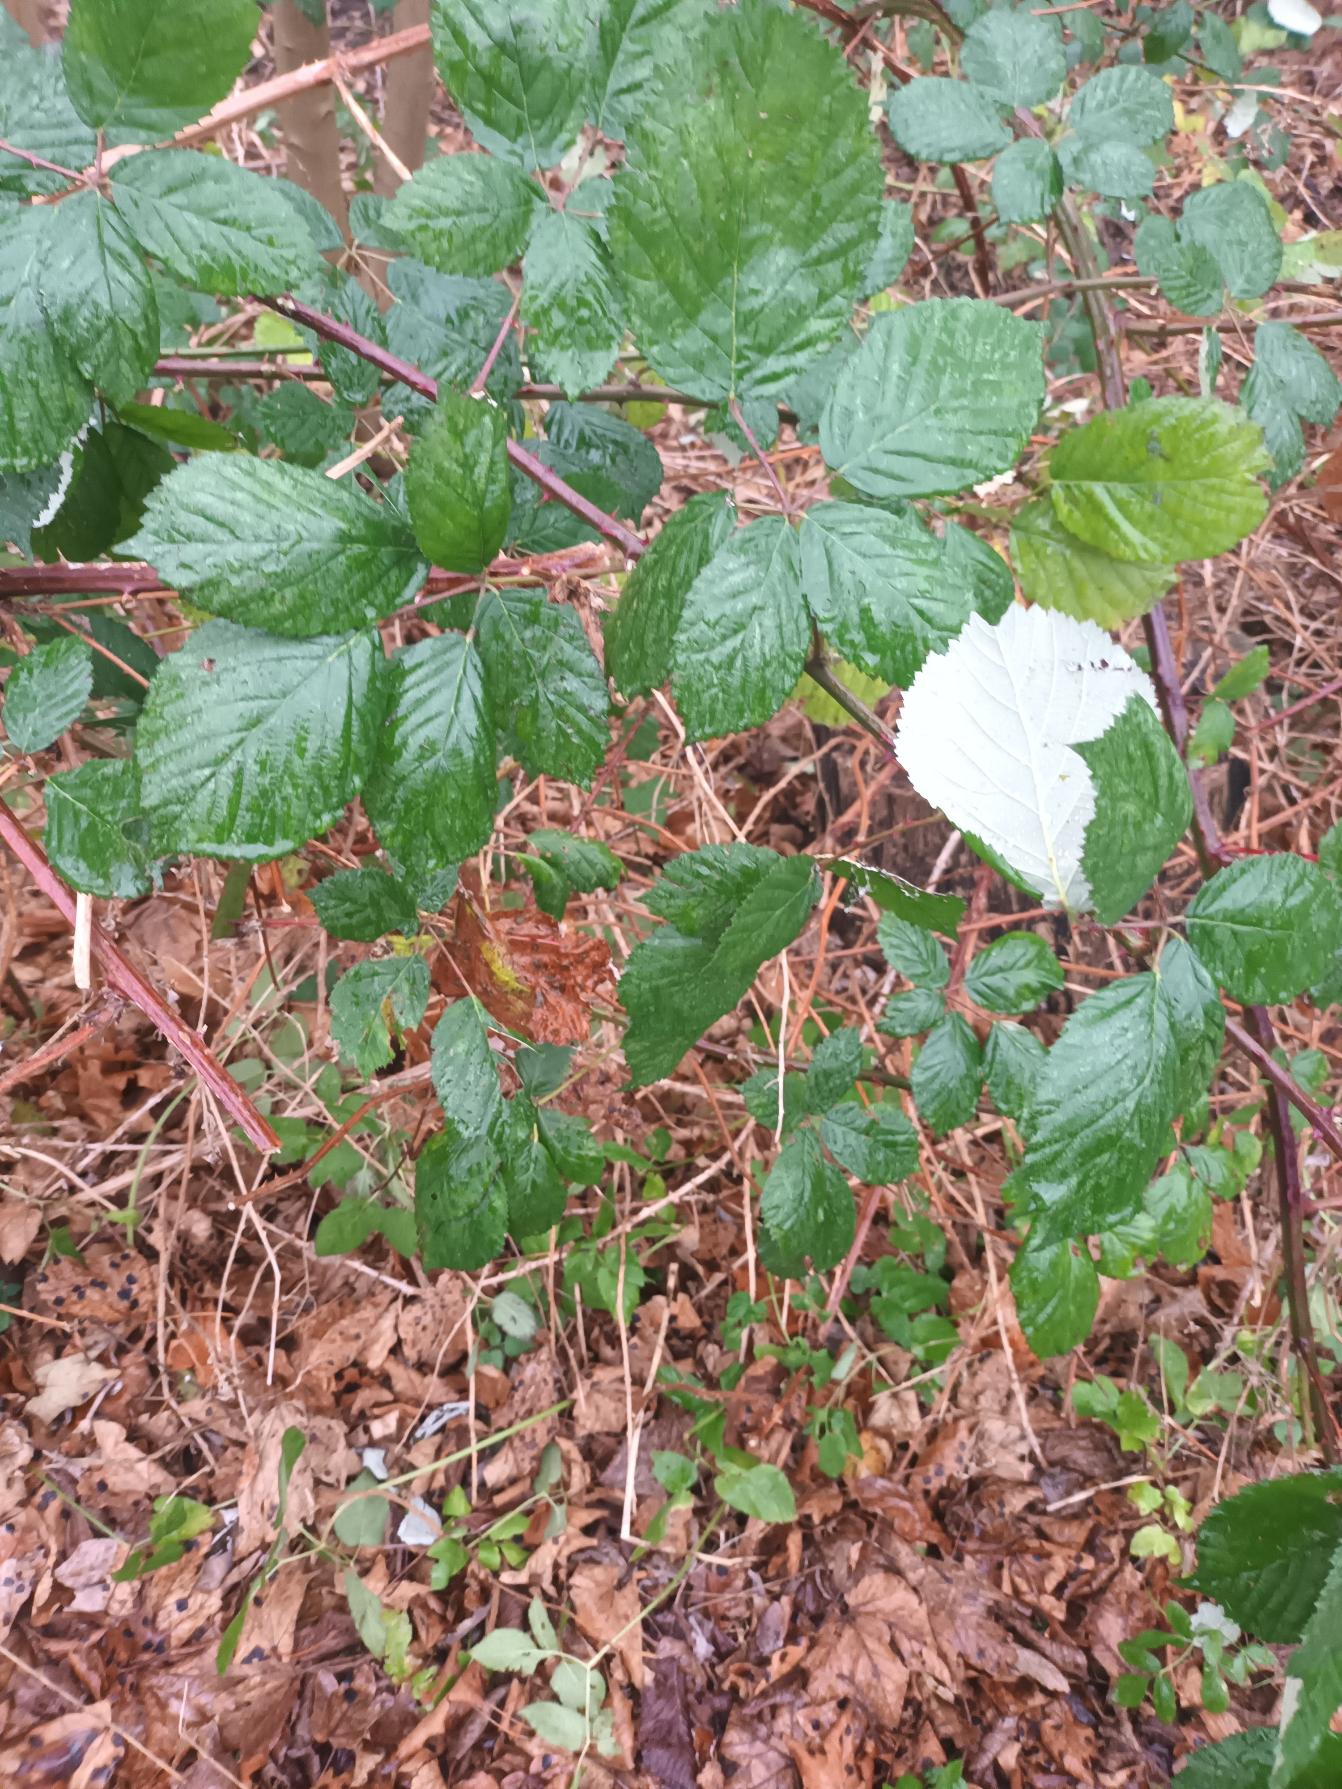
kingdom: Plantae
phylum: Tracheophyta
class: Magnoliopsida
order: Rosales
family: Rosaceae
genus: Rubus
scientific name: Rubus armeniacus
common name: Armensk brombær
